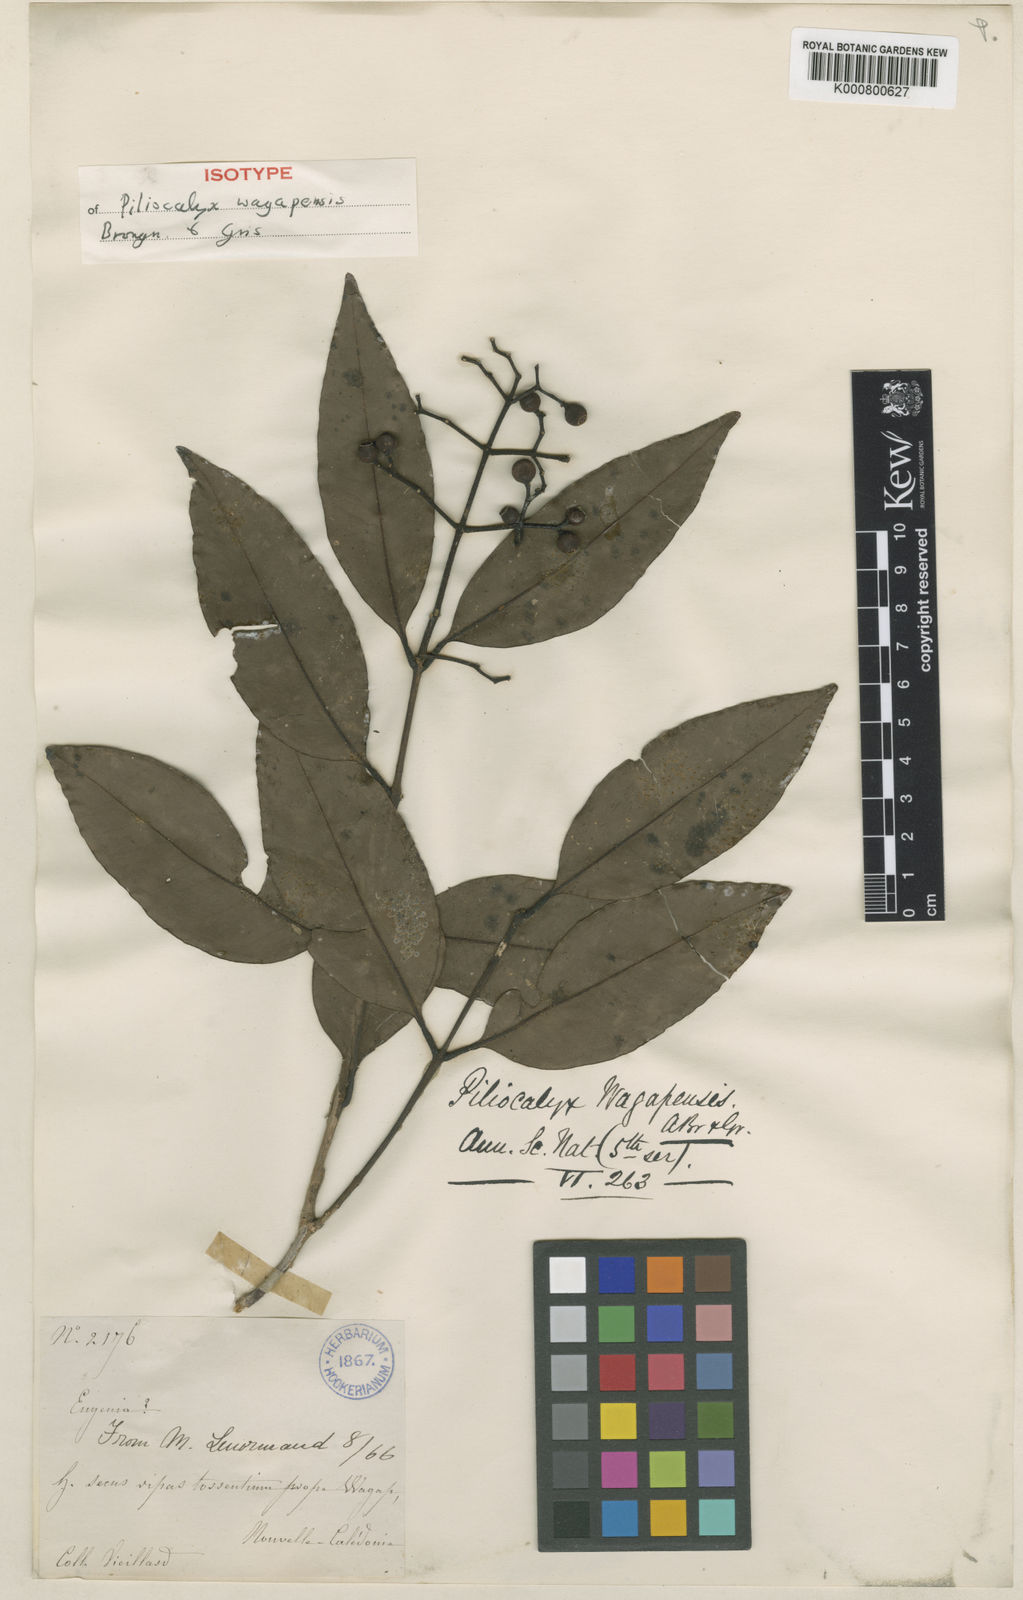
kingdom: Plantae
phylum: Tracheophyta
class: Magnoliopsida
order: Myrtales
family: Myrtaceae
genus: Syzygium
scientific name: Syzygium wagapense
